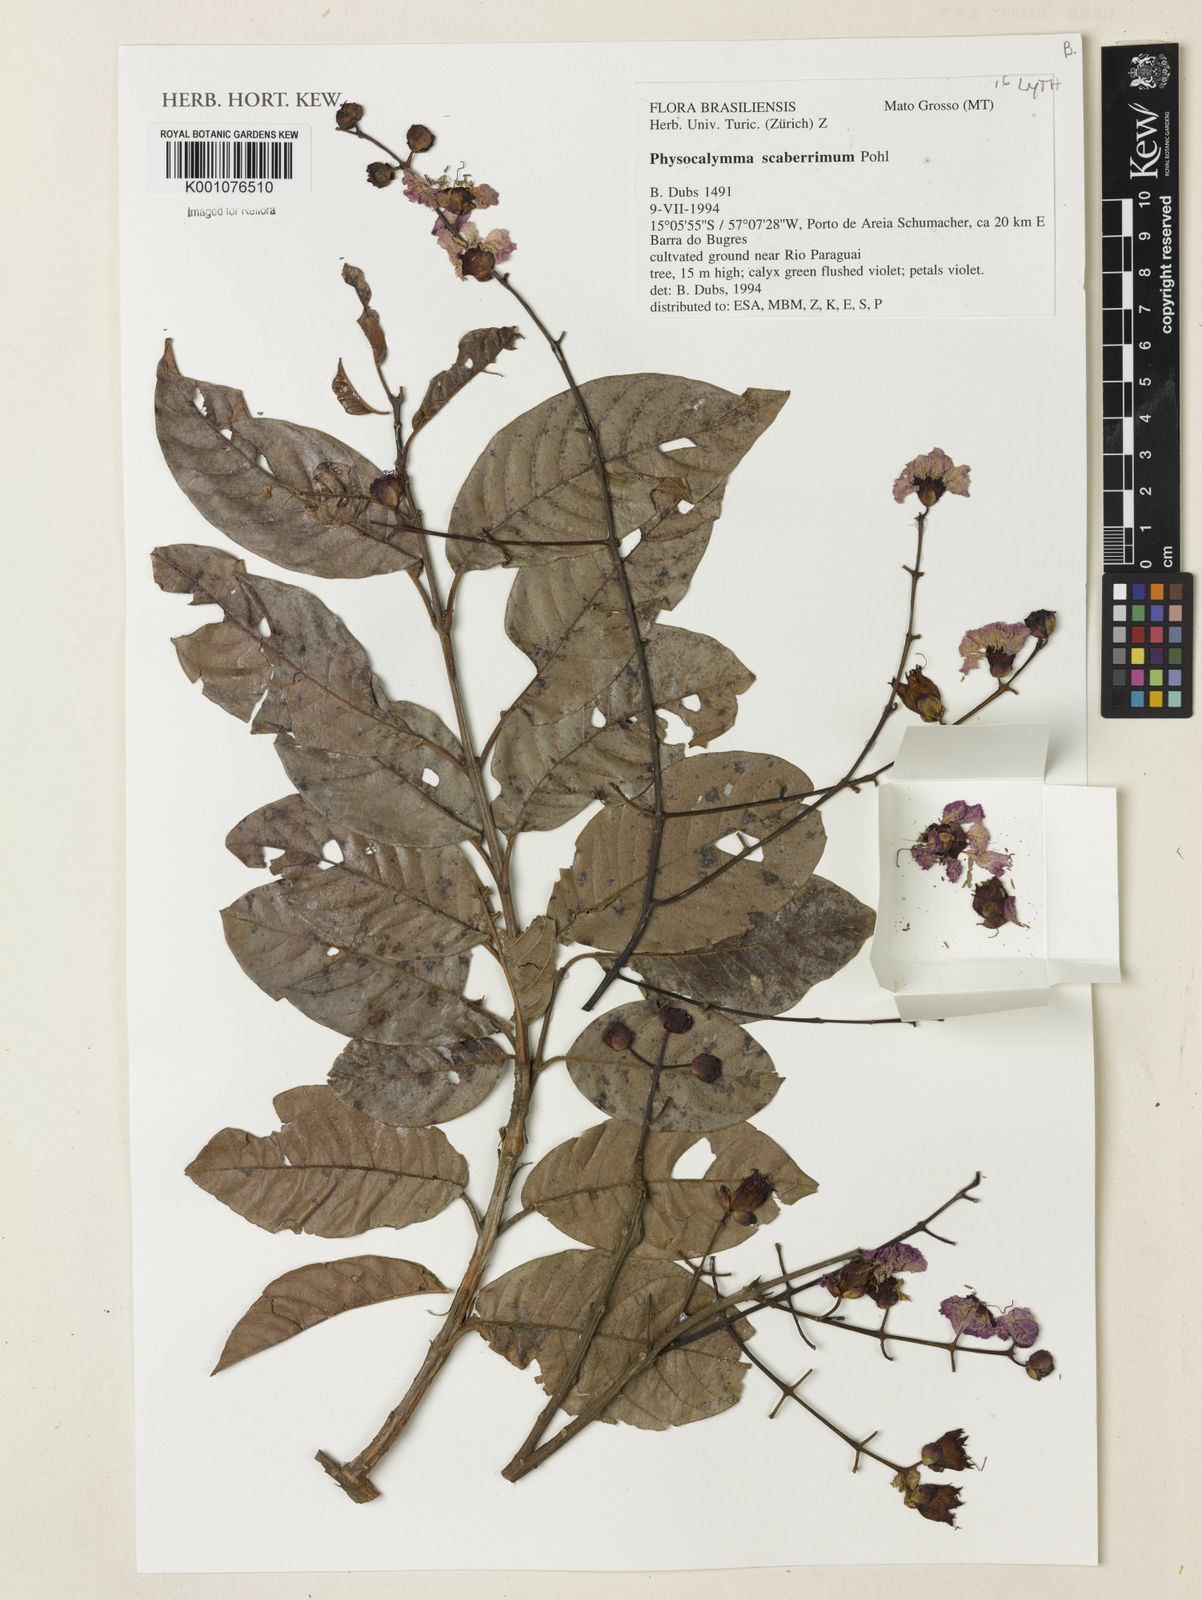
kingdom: Plantae
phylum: Tracheophyta
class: Magnoliopsida
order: Myrtales
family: Lythraceae
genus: Physocalymma
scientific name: Physocalymma scaberrimum
